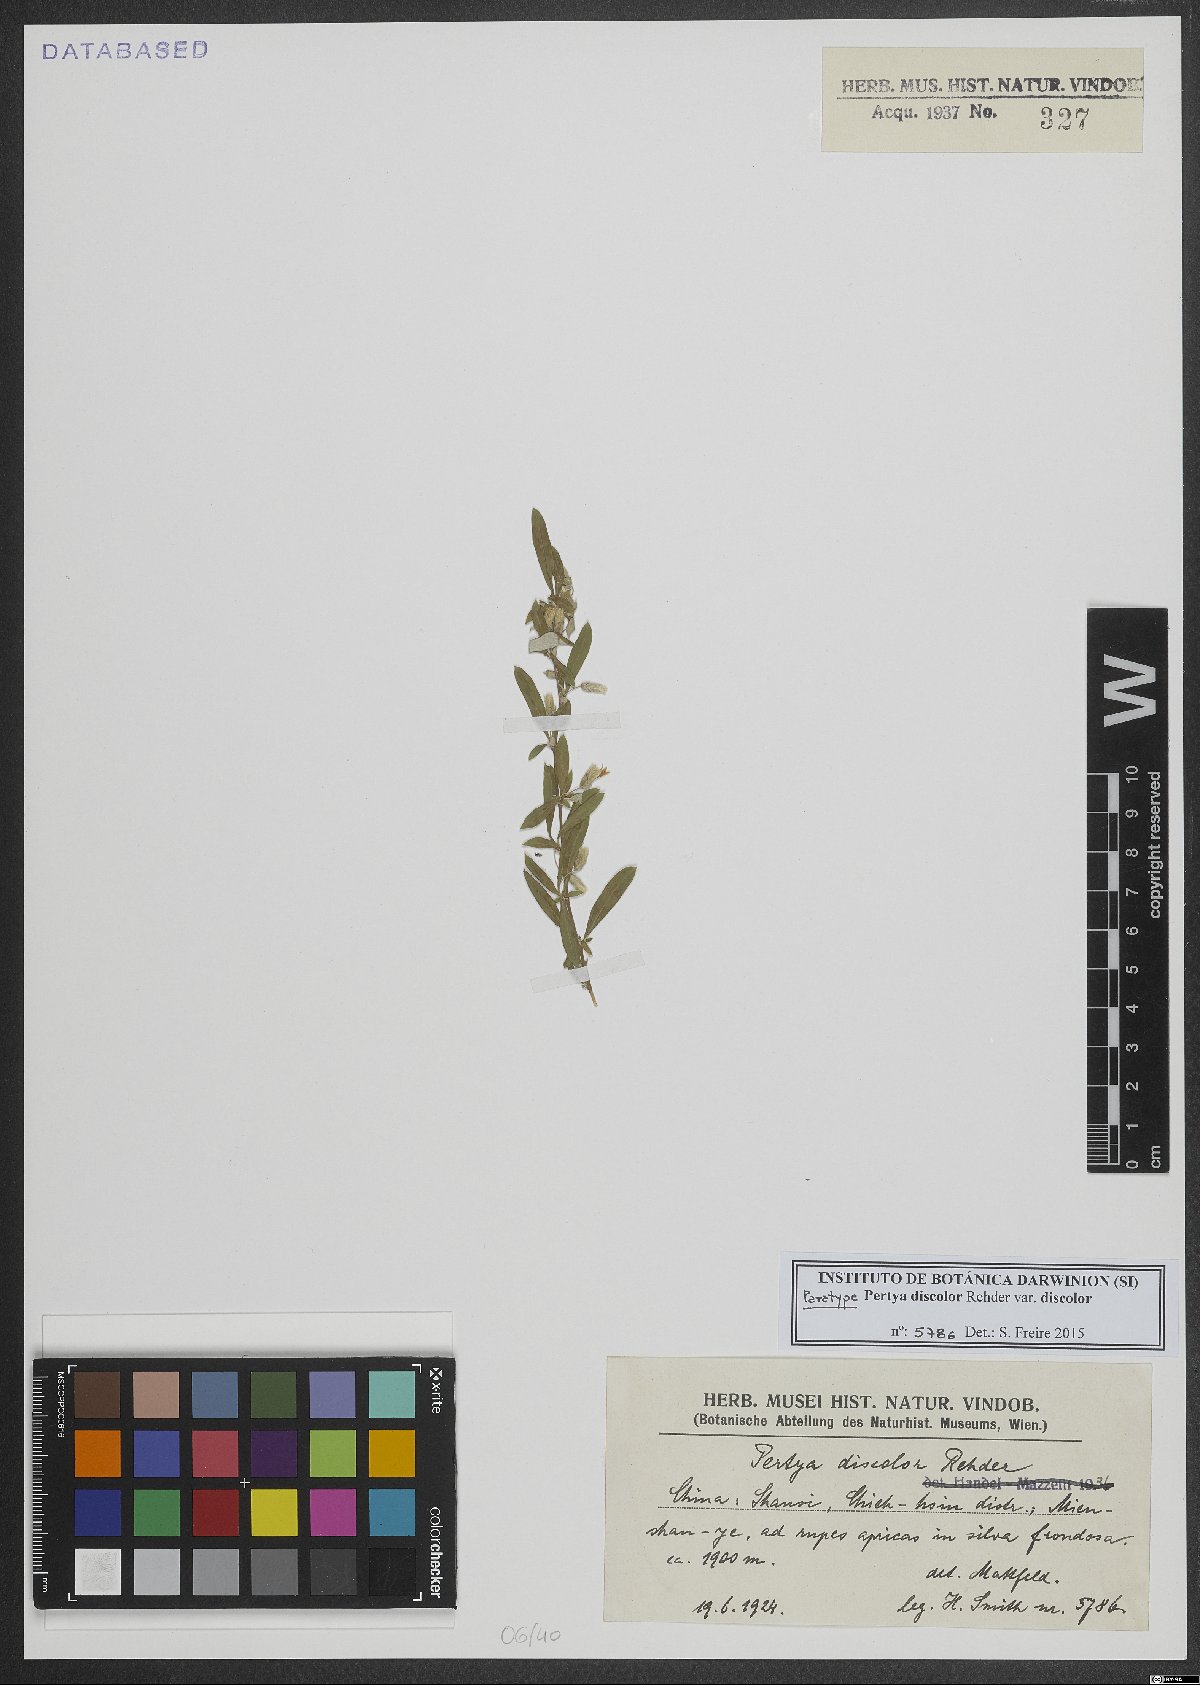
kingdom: Plantae
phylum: Tracheophyta
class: Magnoliopsida
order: Asterales
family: Asteraceae
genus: Pertya
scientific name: Pertya discolor
